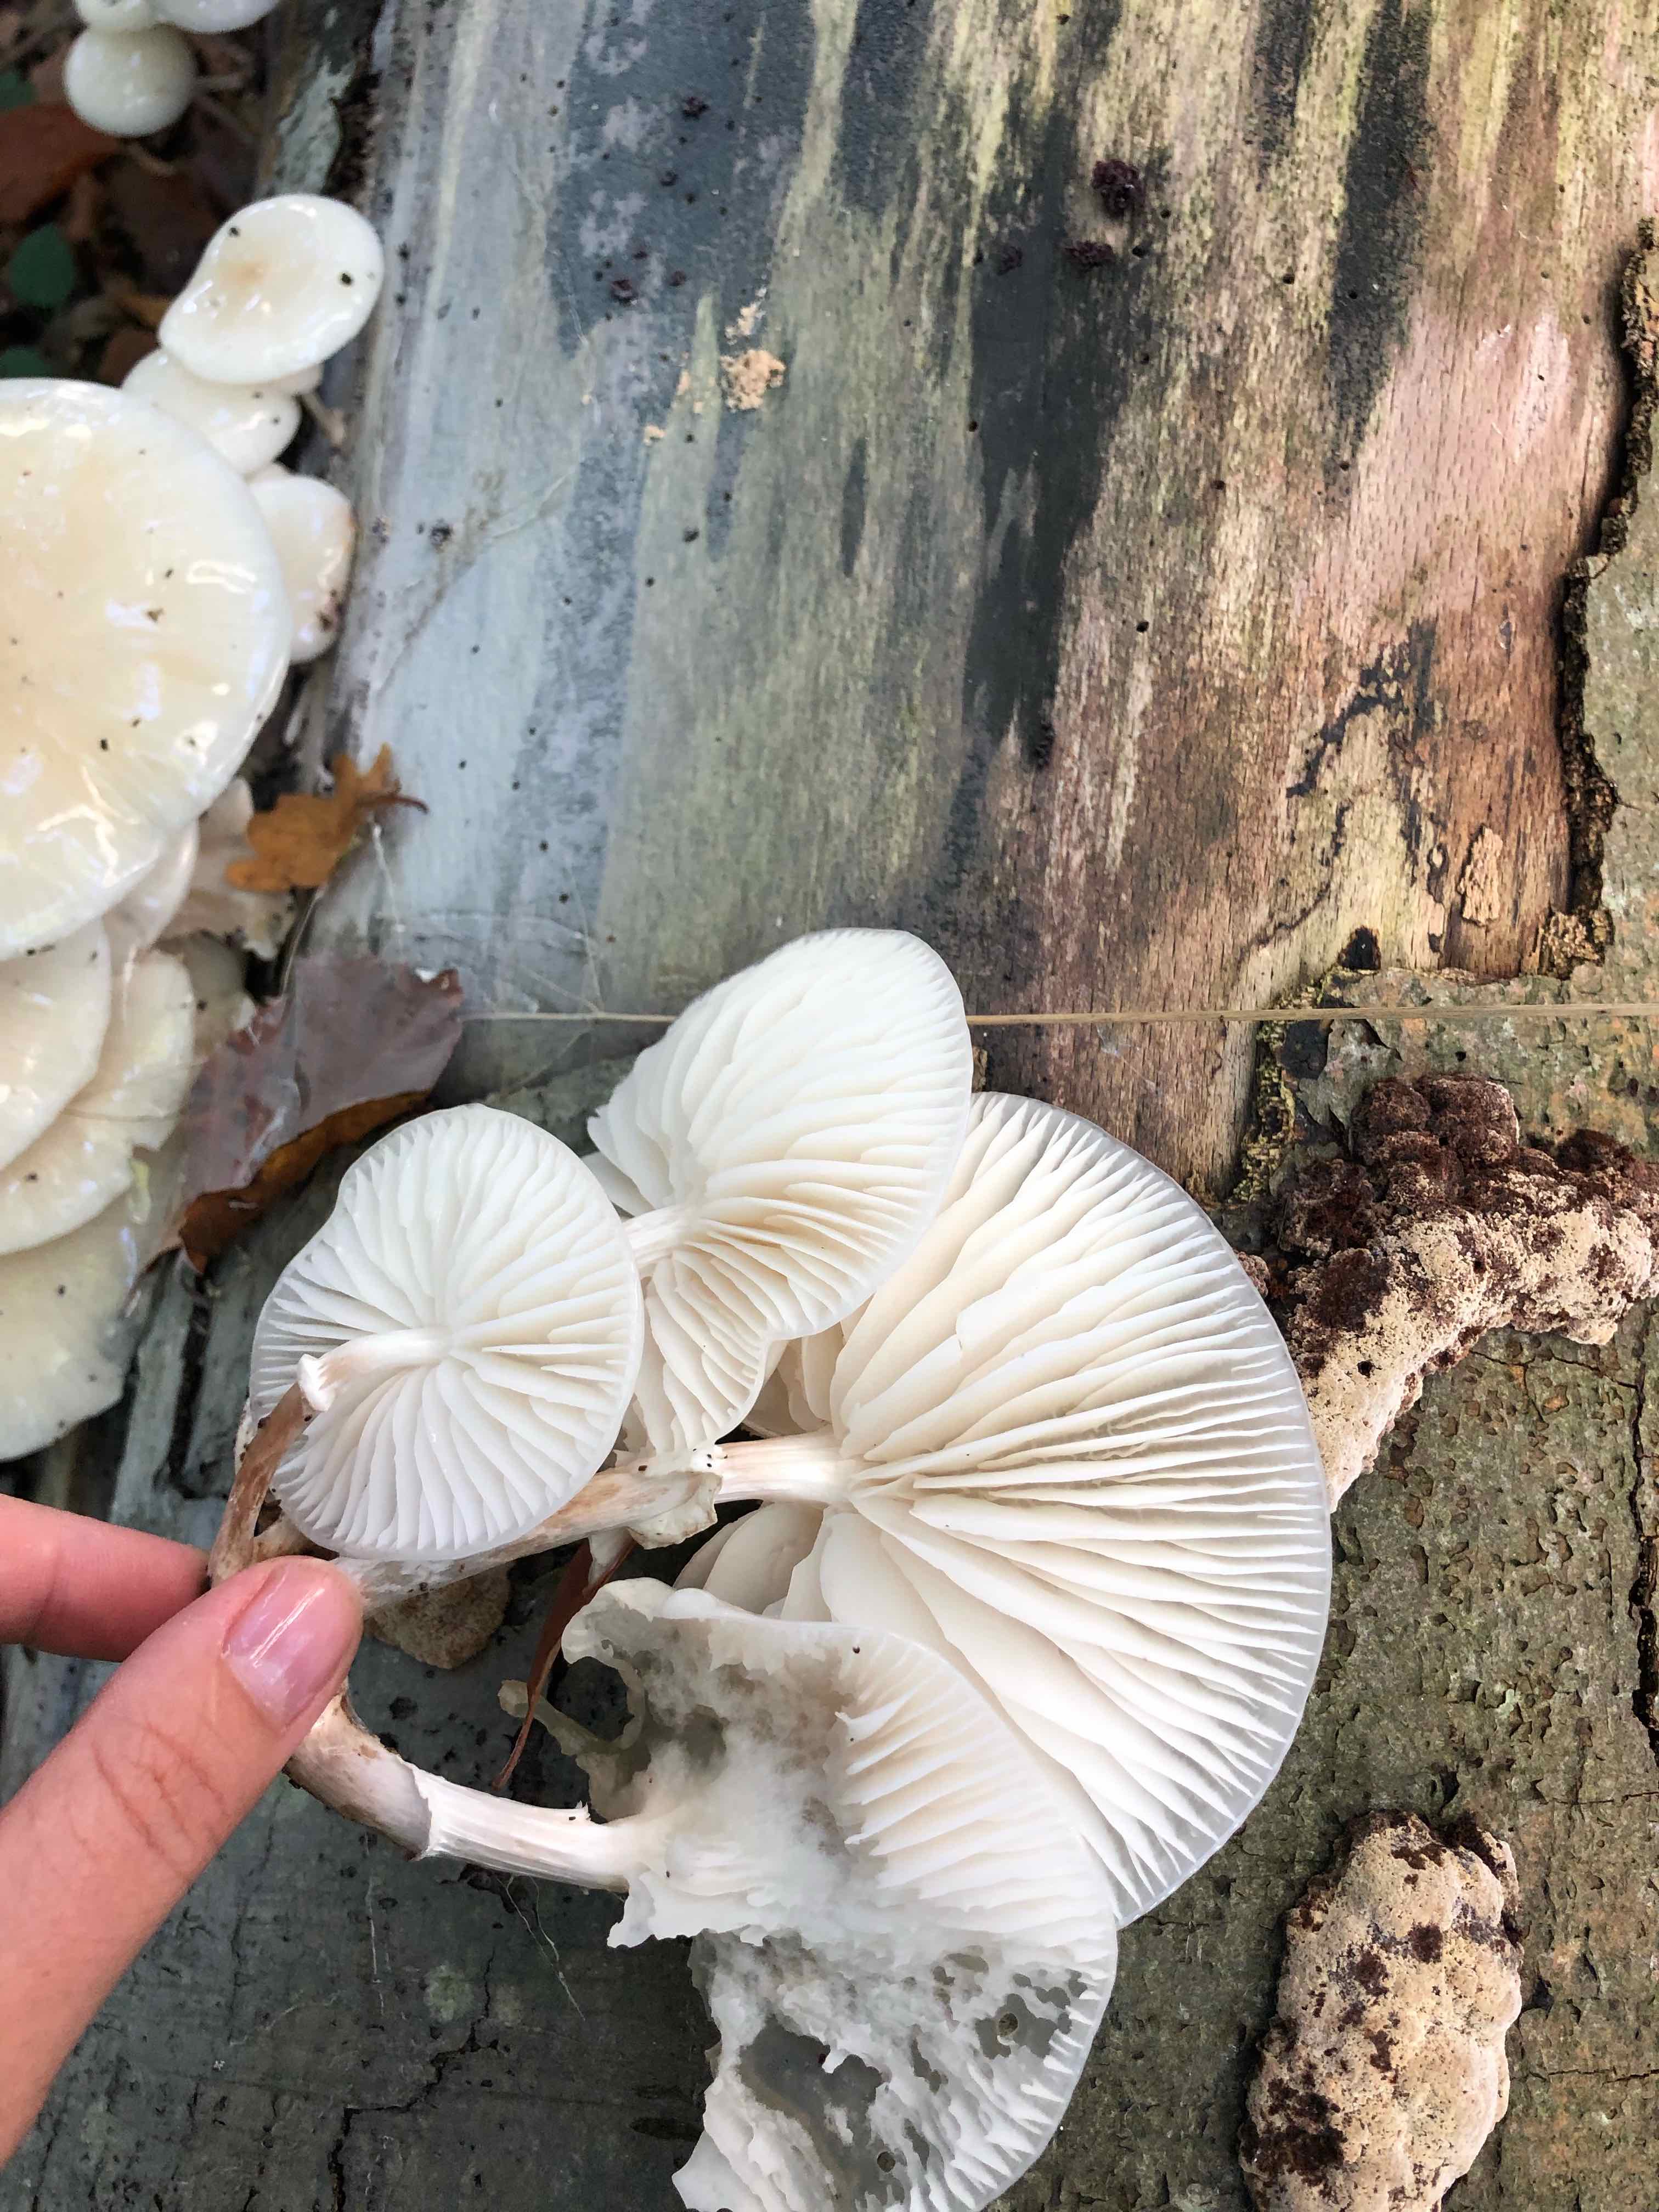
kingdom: Fungi
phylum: Basidiomycota
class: Agaricomycetes
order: Agaricales
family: Physalacriaceae
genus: Mucidula
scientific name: Mucidula mucida
